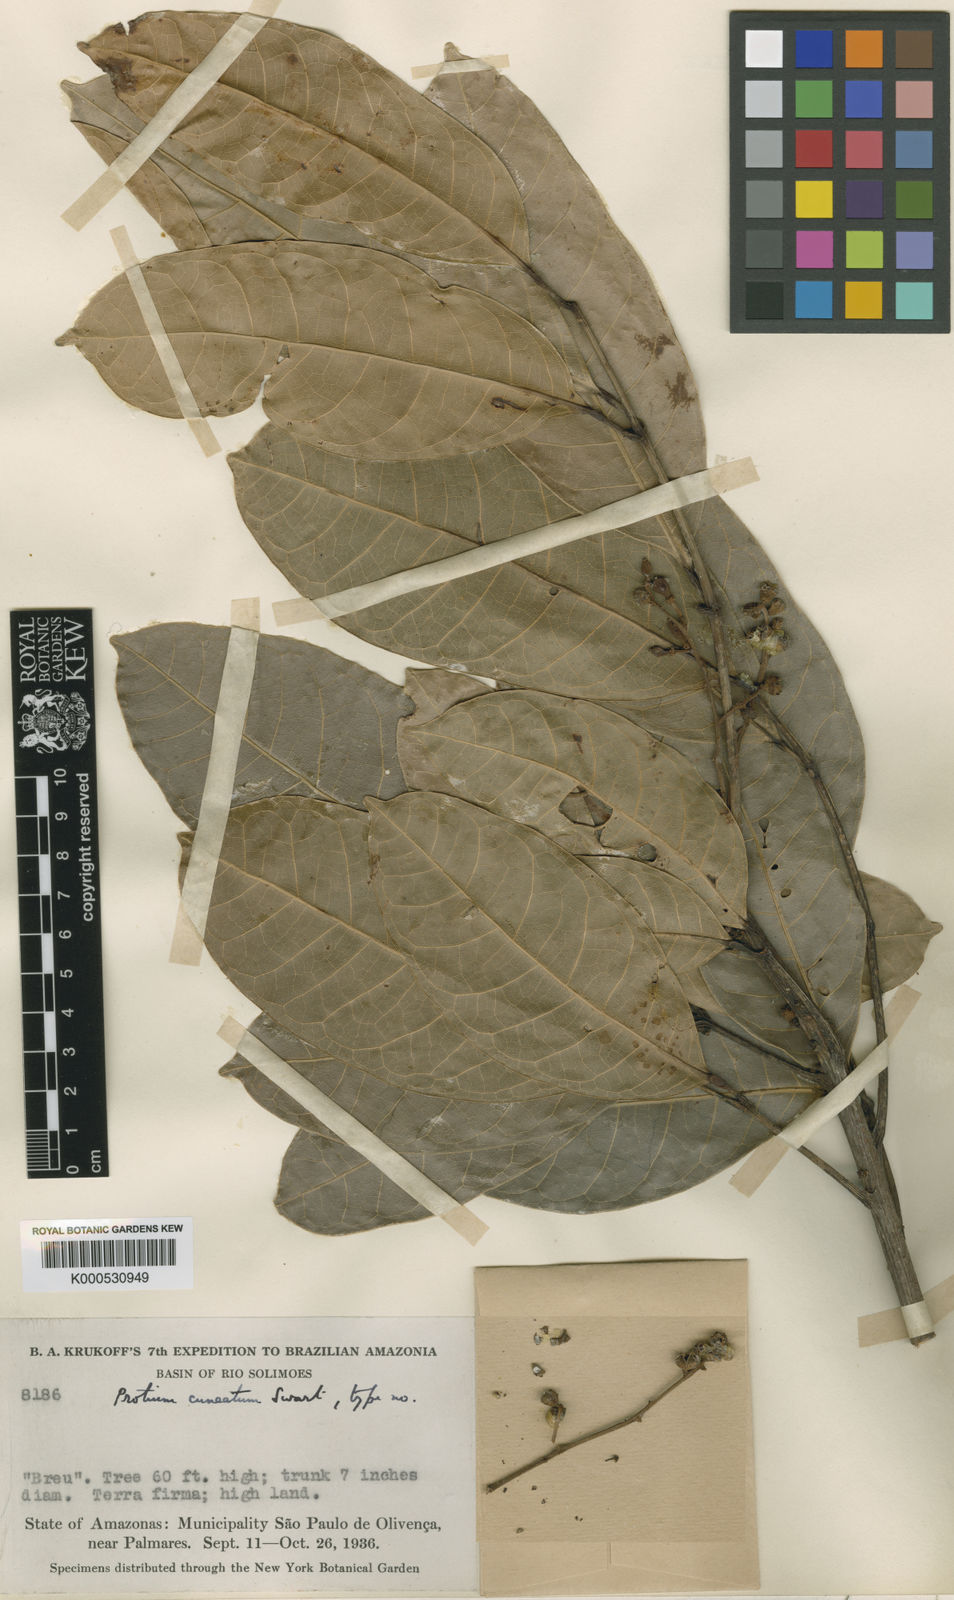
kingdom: Plantae
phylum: Tracheophyta
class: Magnoliopsida
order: Sapindales
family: Burseraceae
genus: Protium
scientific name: Protium cuneatum
